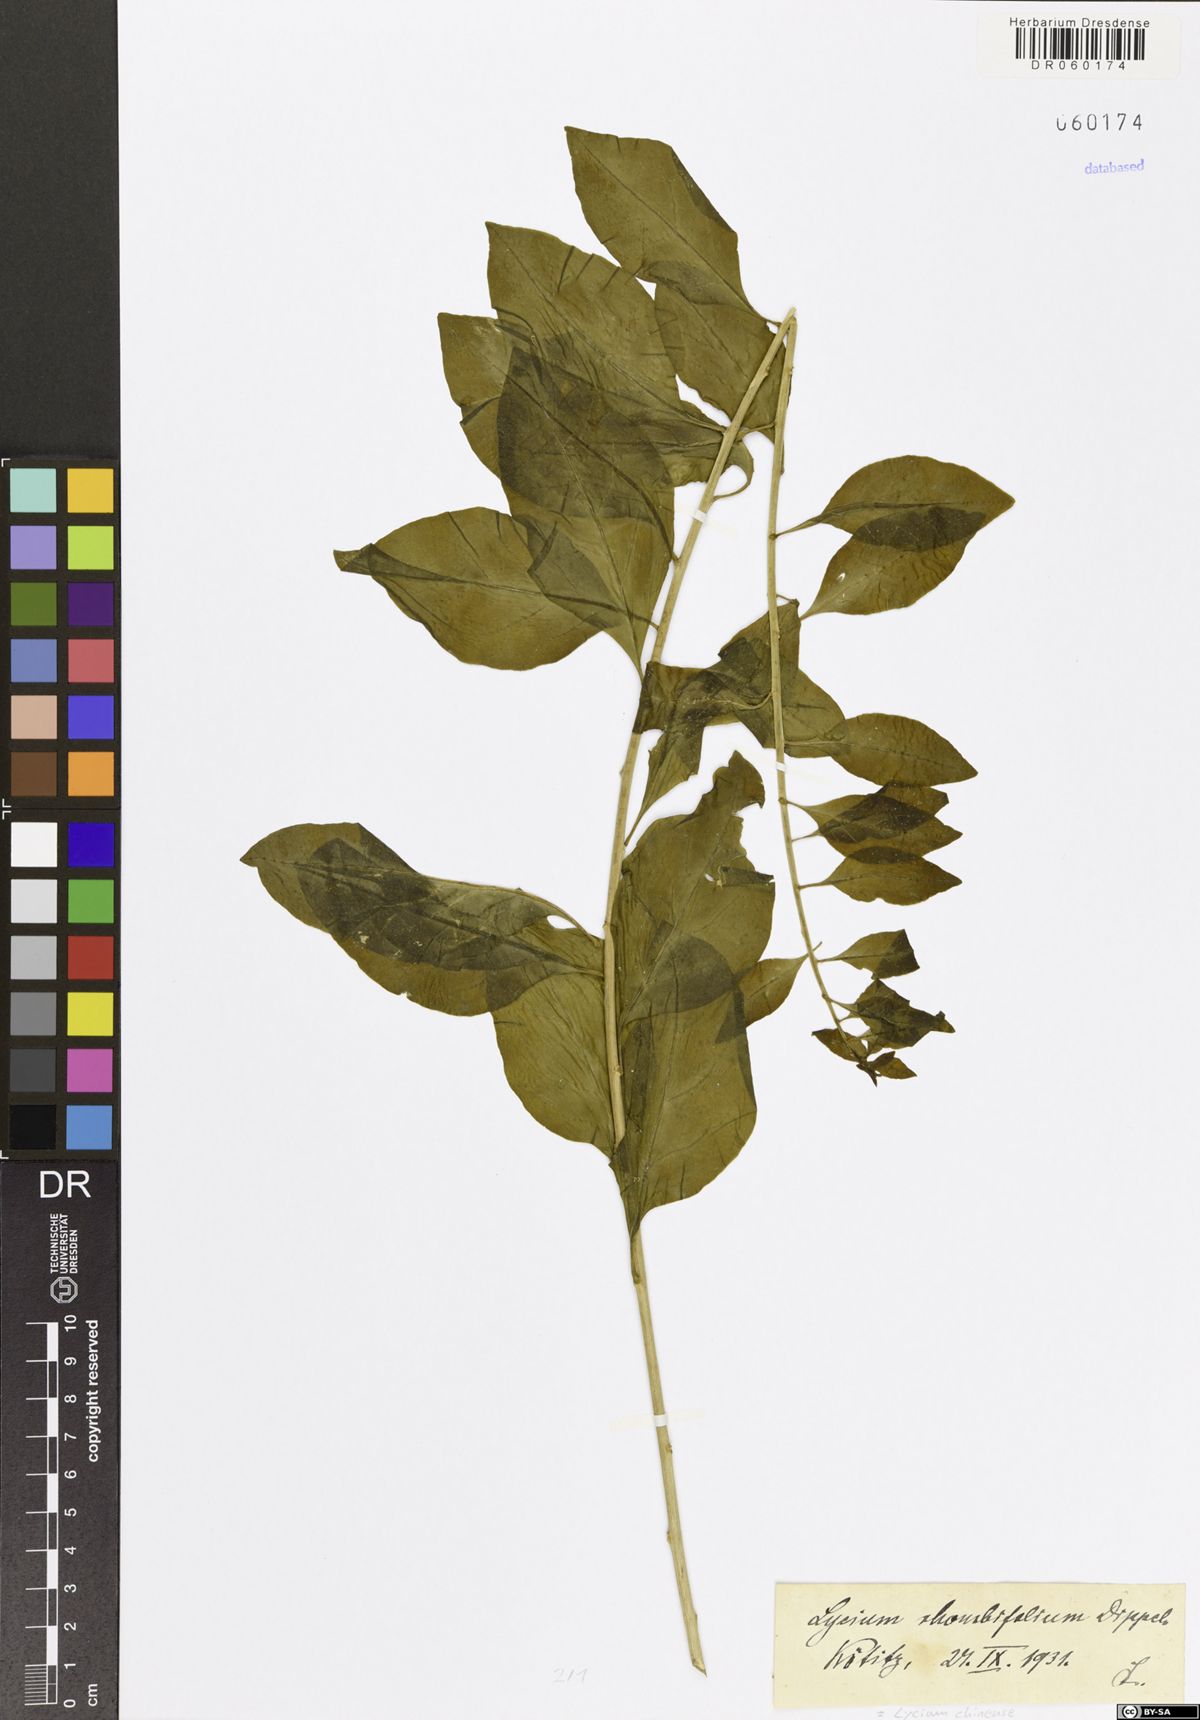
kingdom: Plantae
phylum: Tracheophyta
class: Magnoliopsida
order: Solanales
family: Solanaceae
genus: Lycium
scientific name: Lycium chinense
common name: Chinese teaplant
